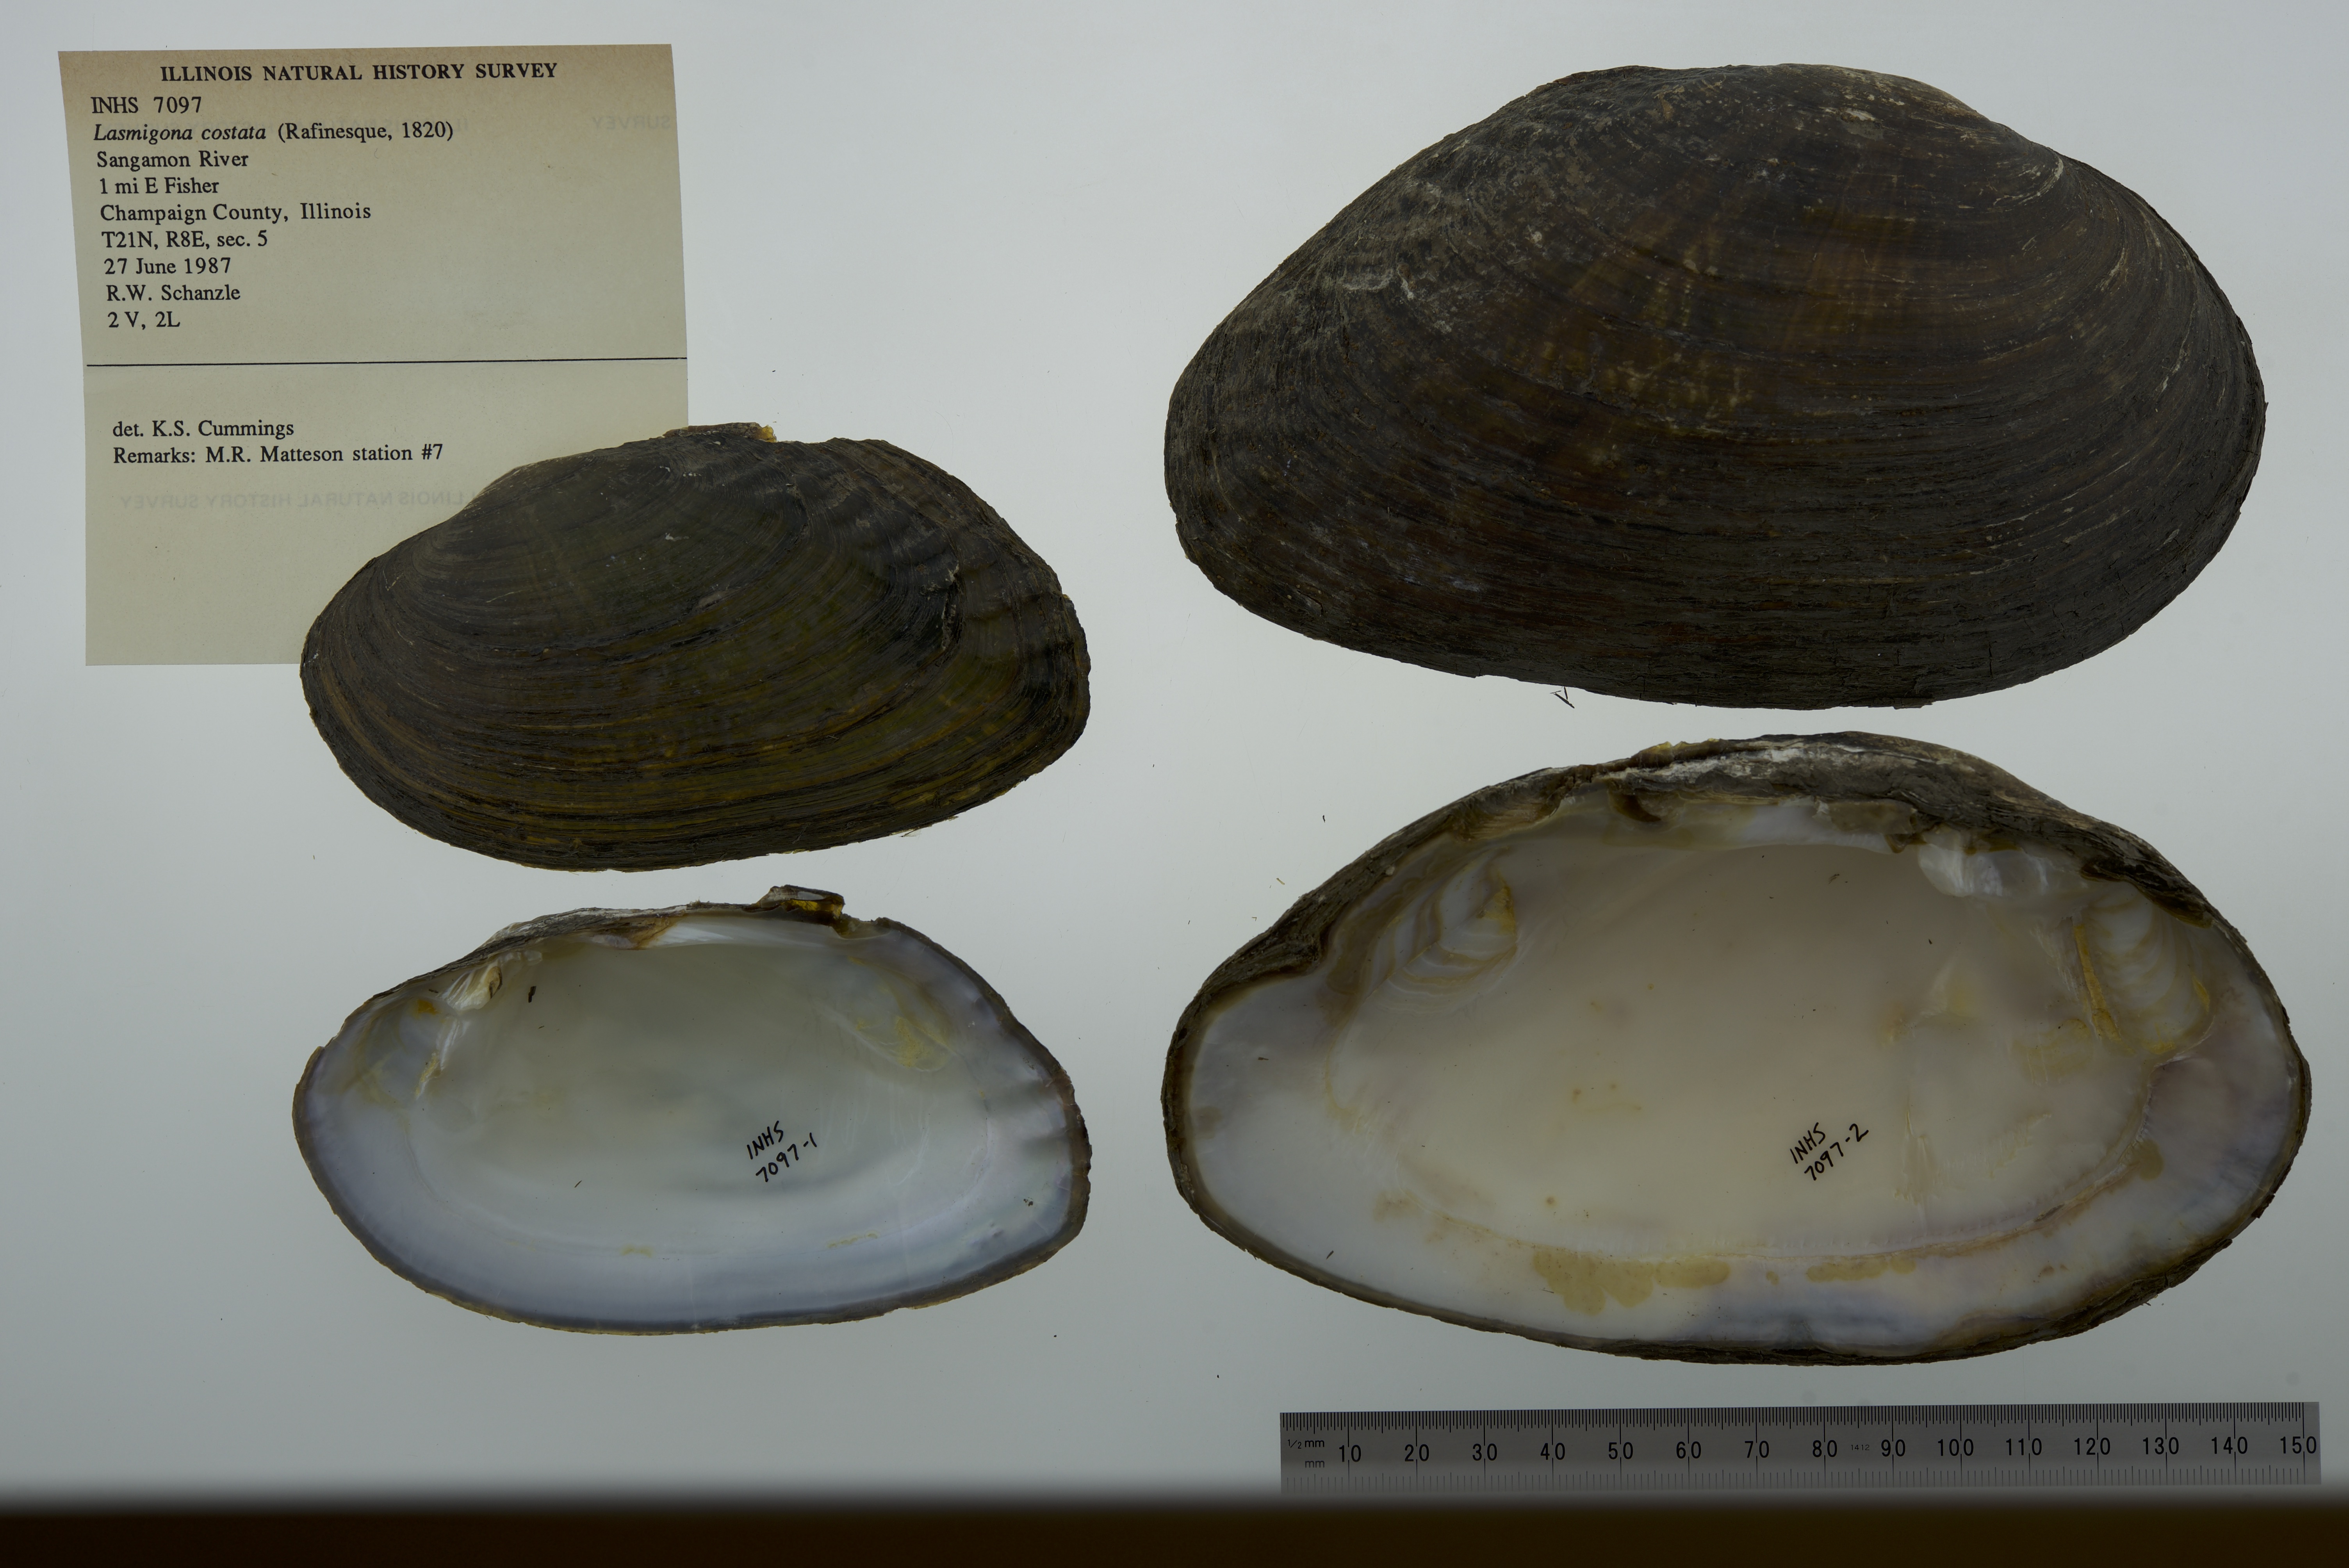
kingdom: Animalia
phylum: Mollusca
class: Bivalvia
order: Unionida
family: Unionidae
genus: Lasmigona
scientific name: Lasmigona costata
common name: Flutedshell
